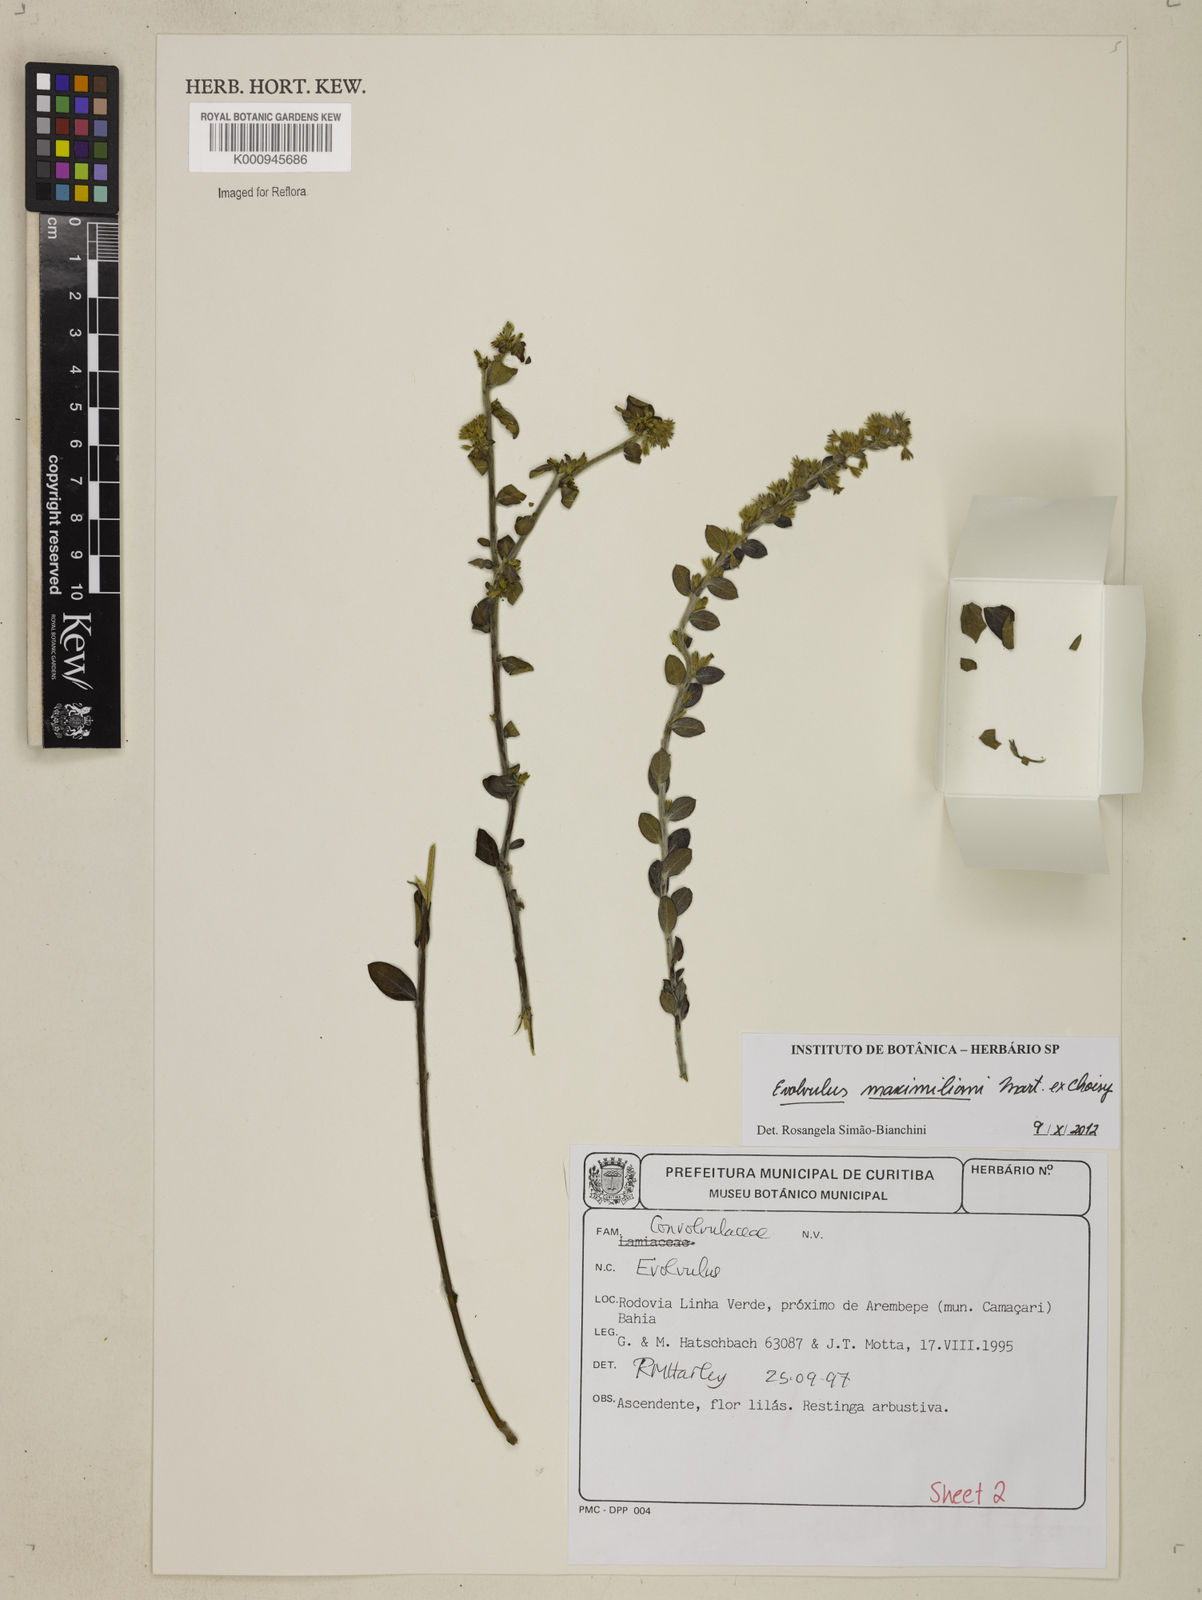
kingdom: Plantae
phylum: Tracheophyta
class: Magnoliopsida
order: Solanales
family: Convolvulaceae
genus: Evolvulus
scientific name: Evolvulus maximiliani
